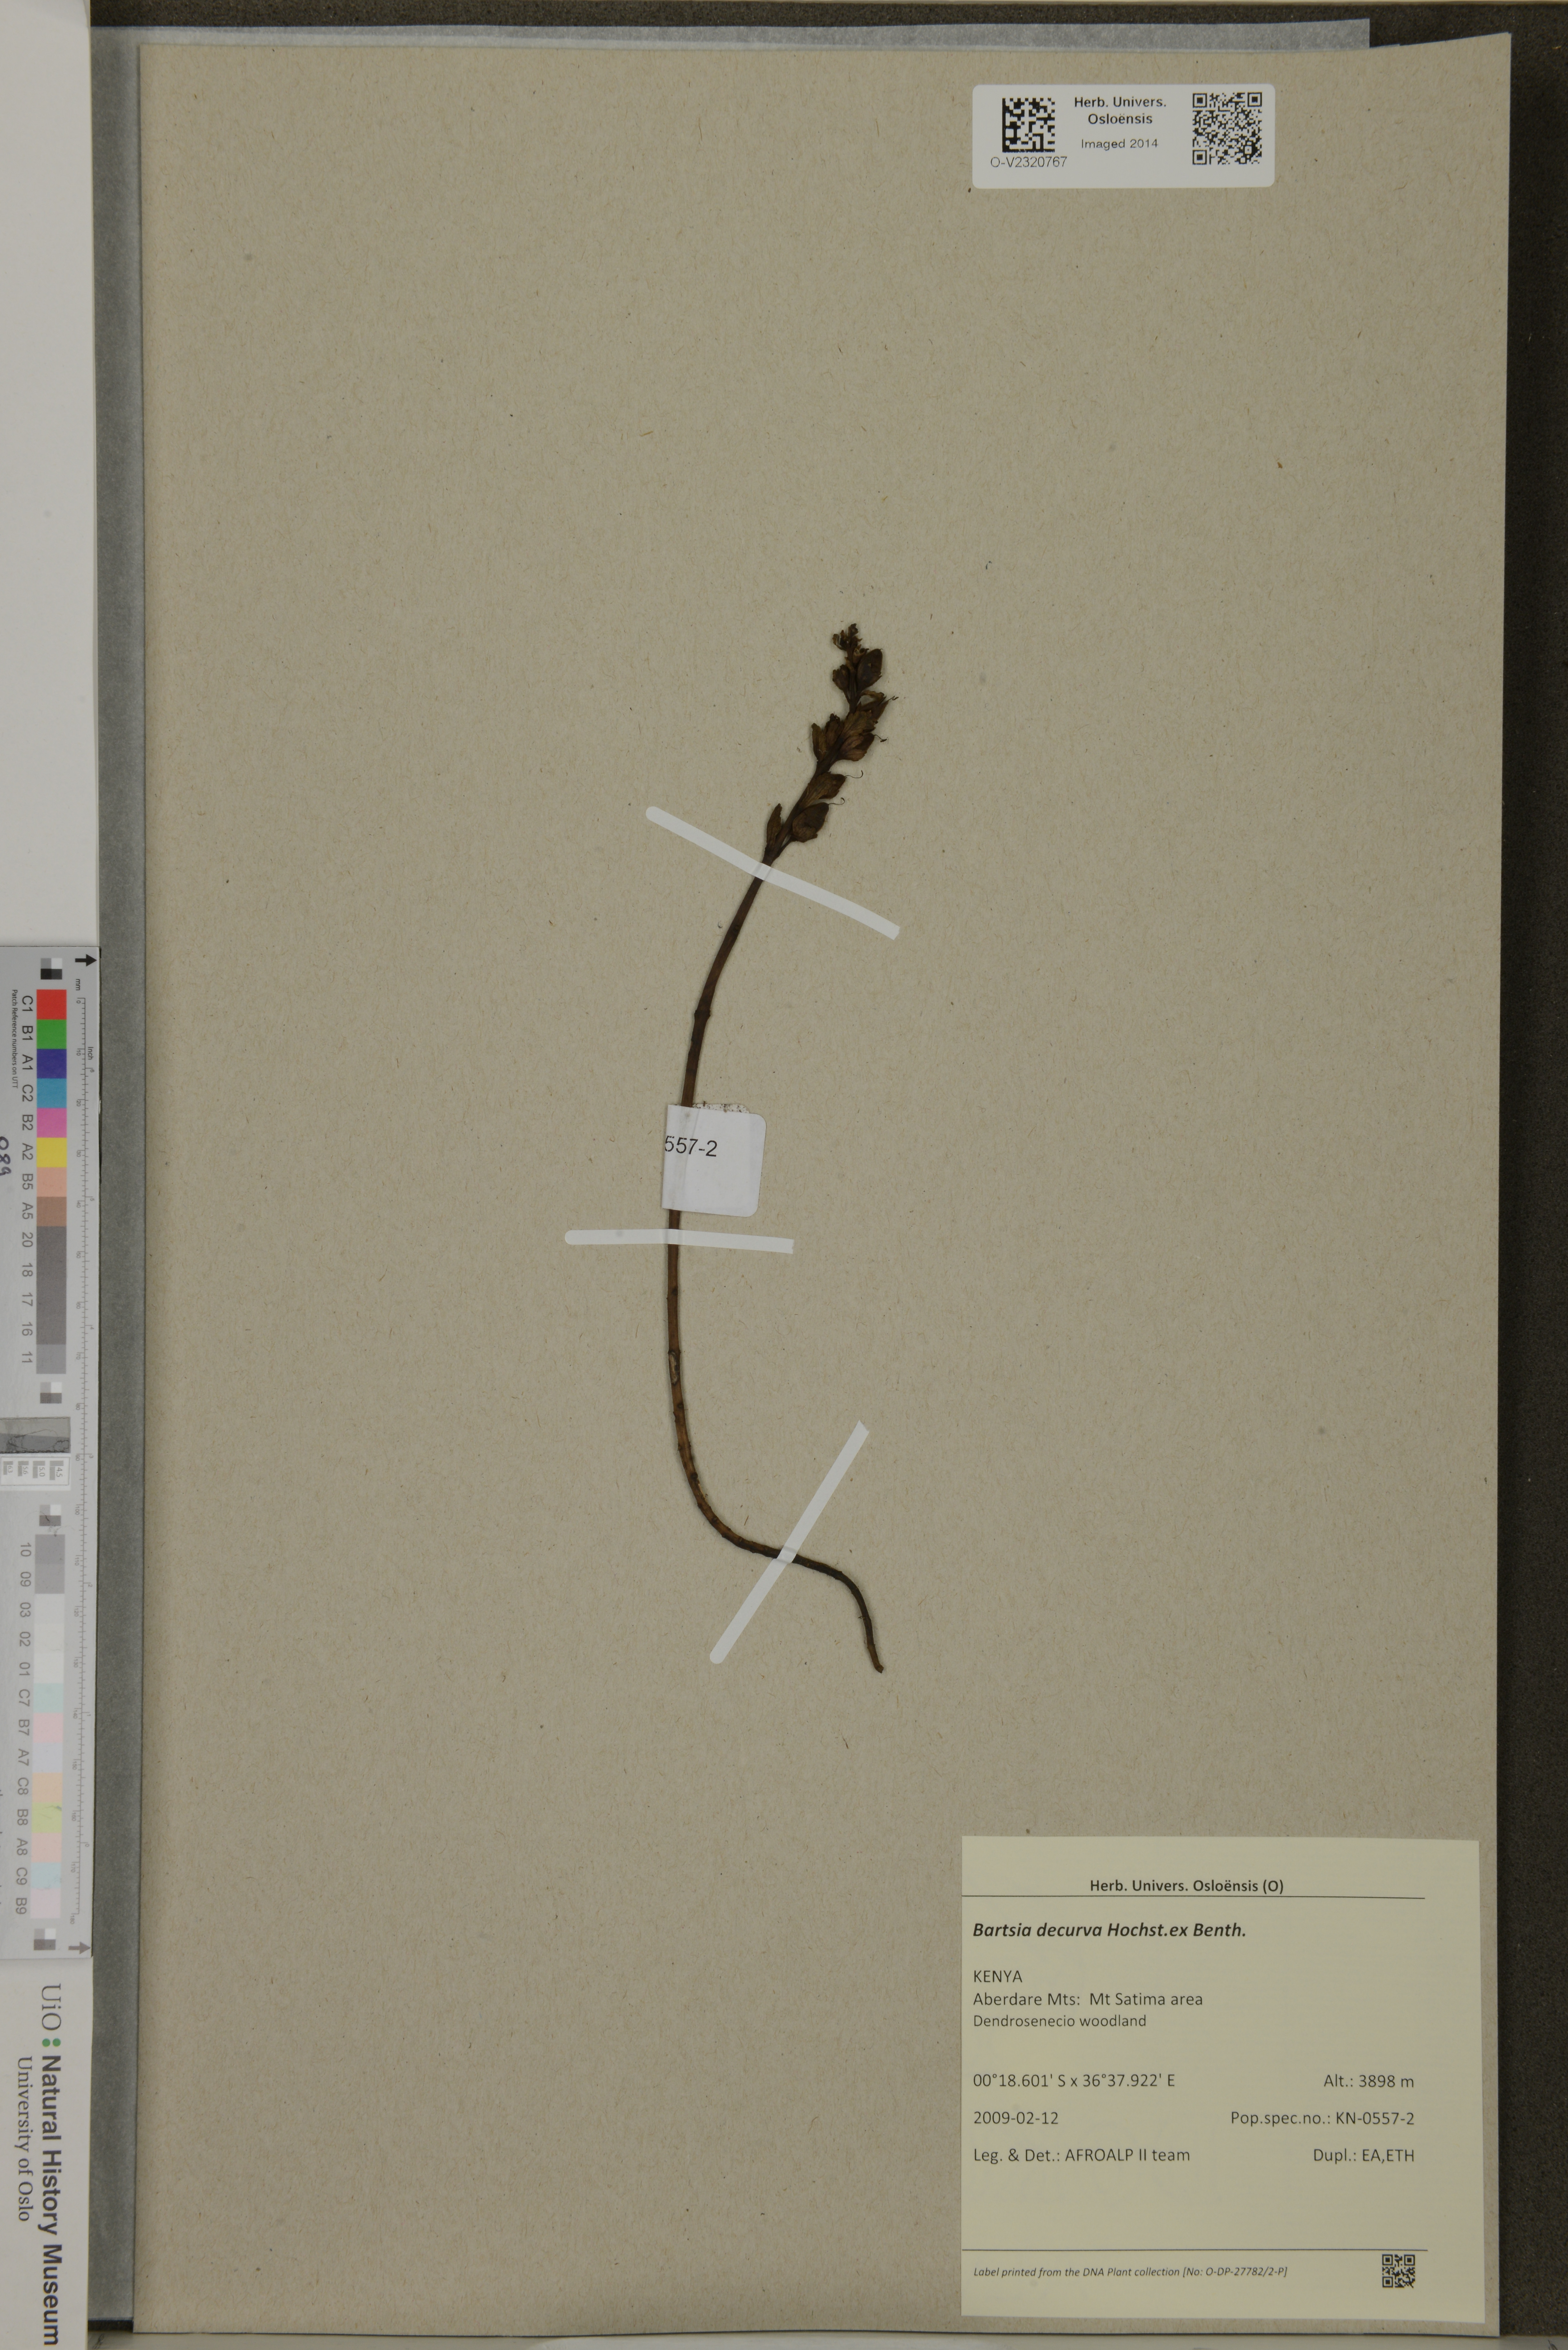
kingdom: Plantae
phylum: Tracheophyta
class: Magnoliopsida
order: Lamiales
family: Orobanchaceae
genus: Hedbergia
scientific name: Hedbergia decurva
